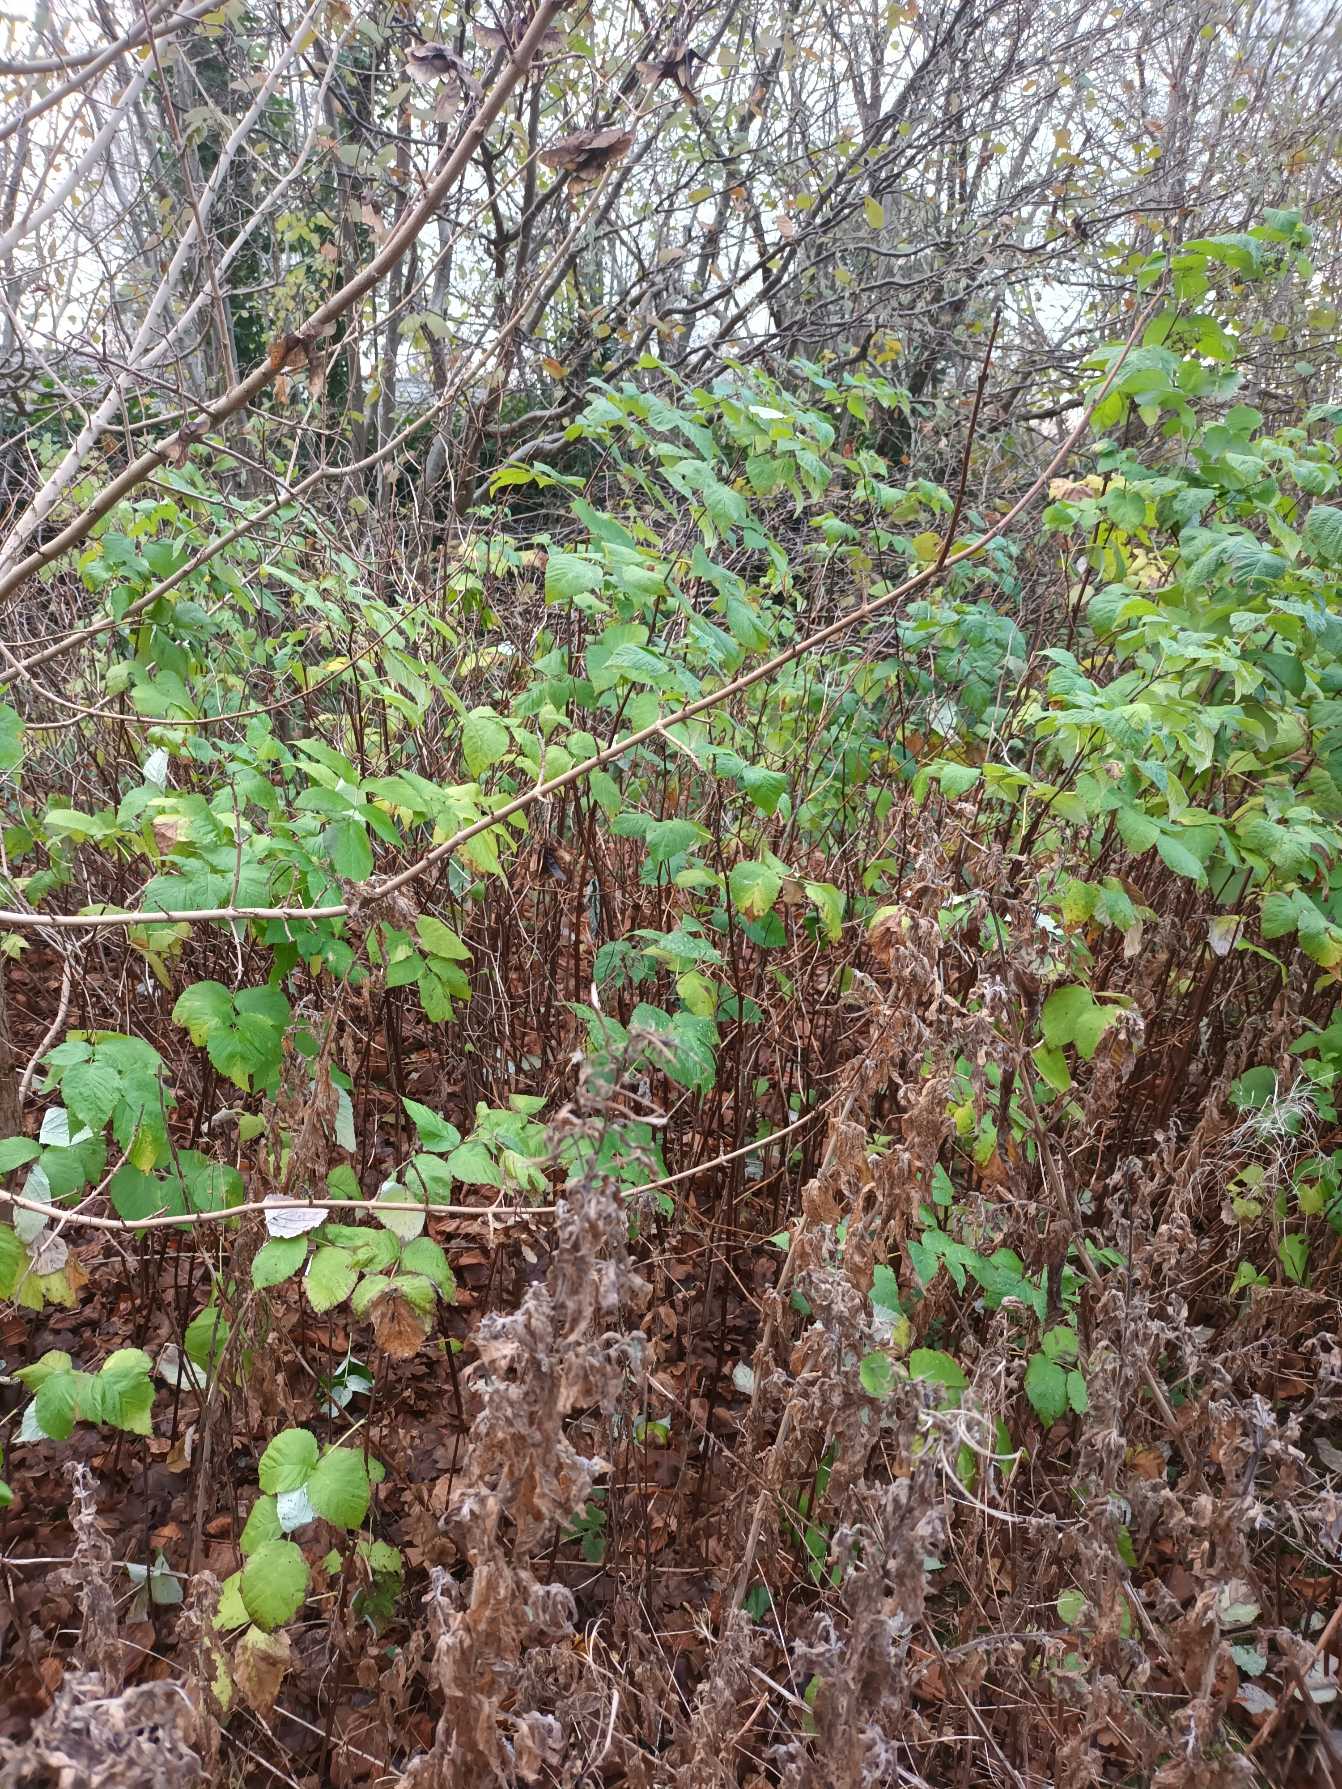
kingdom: Plantae
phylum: Tracheophyta
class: Magnoliopsida
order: Rosales
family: Rosaceae
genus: Rubus
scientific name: Rubus idaeus
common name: Hindbær
